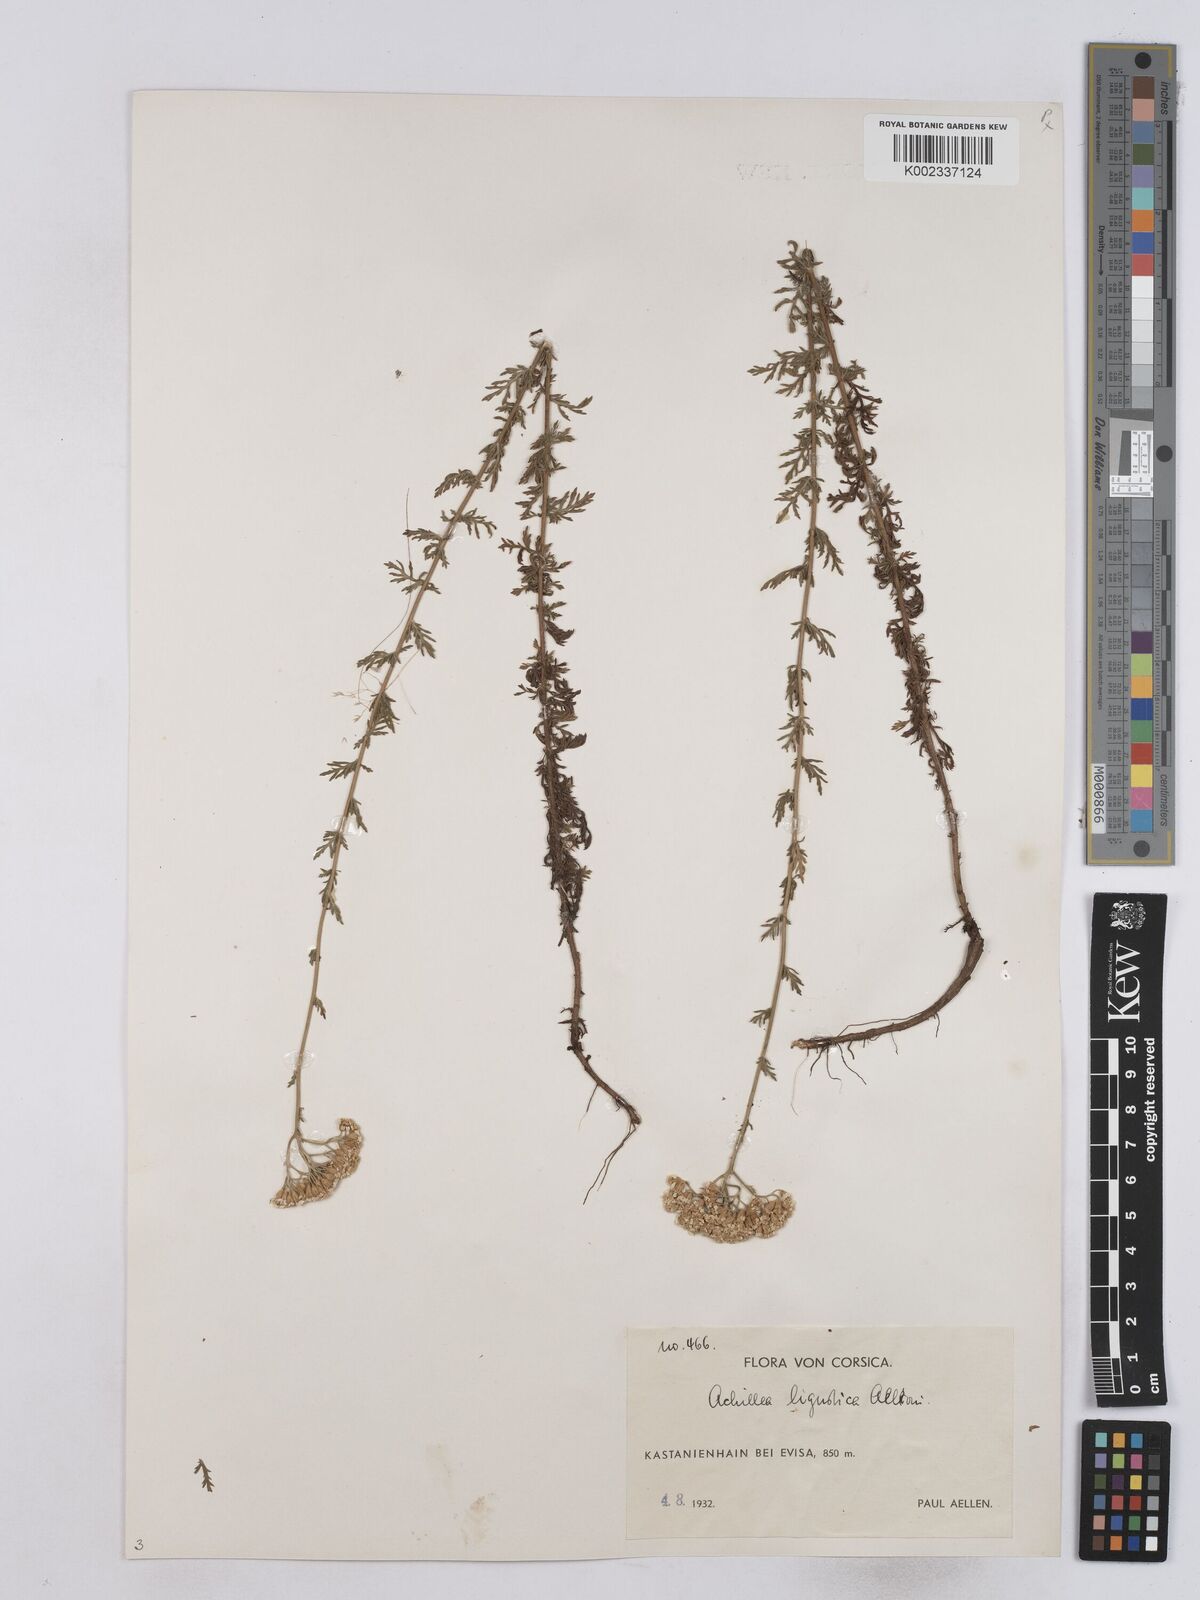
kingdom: Plantae
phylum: Tracheophyta
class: Magnoliopsida
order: Asterales
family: Asteraceae
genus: Achillea
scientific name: Achillea ligustica
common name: Southern yarrow
